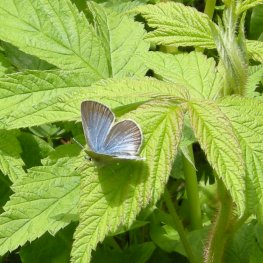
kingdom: Animalia
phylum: Arthropoda
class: Insecta
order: Lepidoptera
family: Lycaenidae
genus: Glaucopsyche
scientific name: Glaucopsyche lygdamus
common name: Silvery Blue
